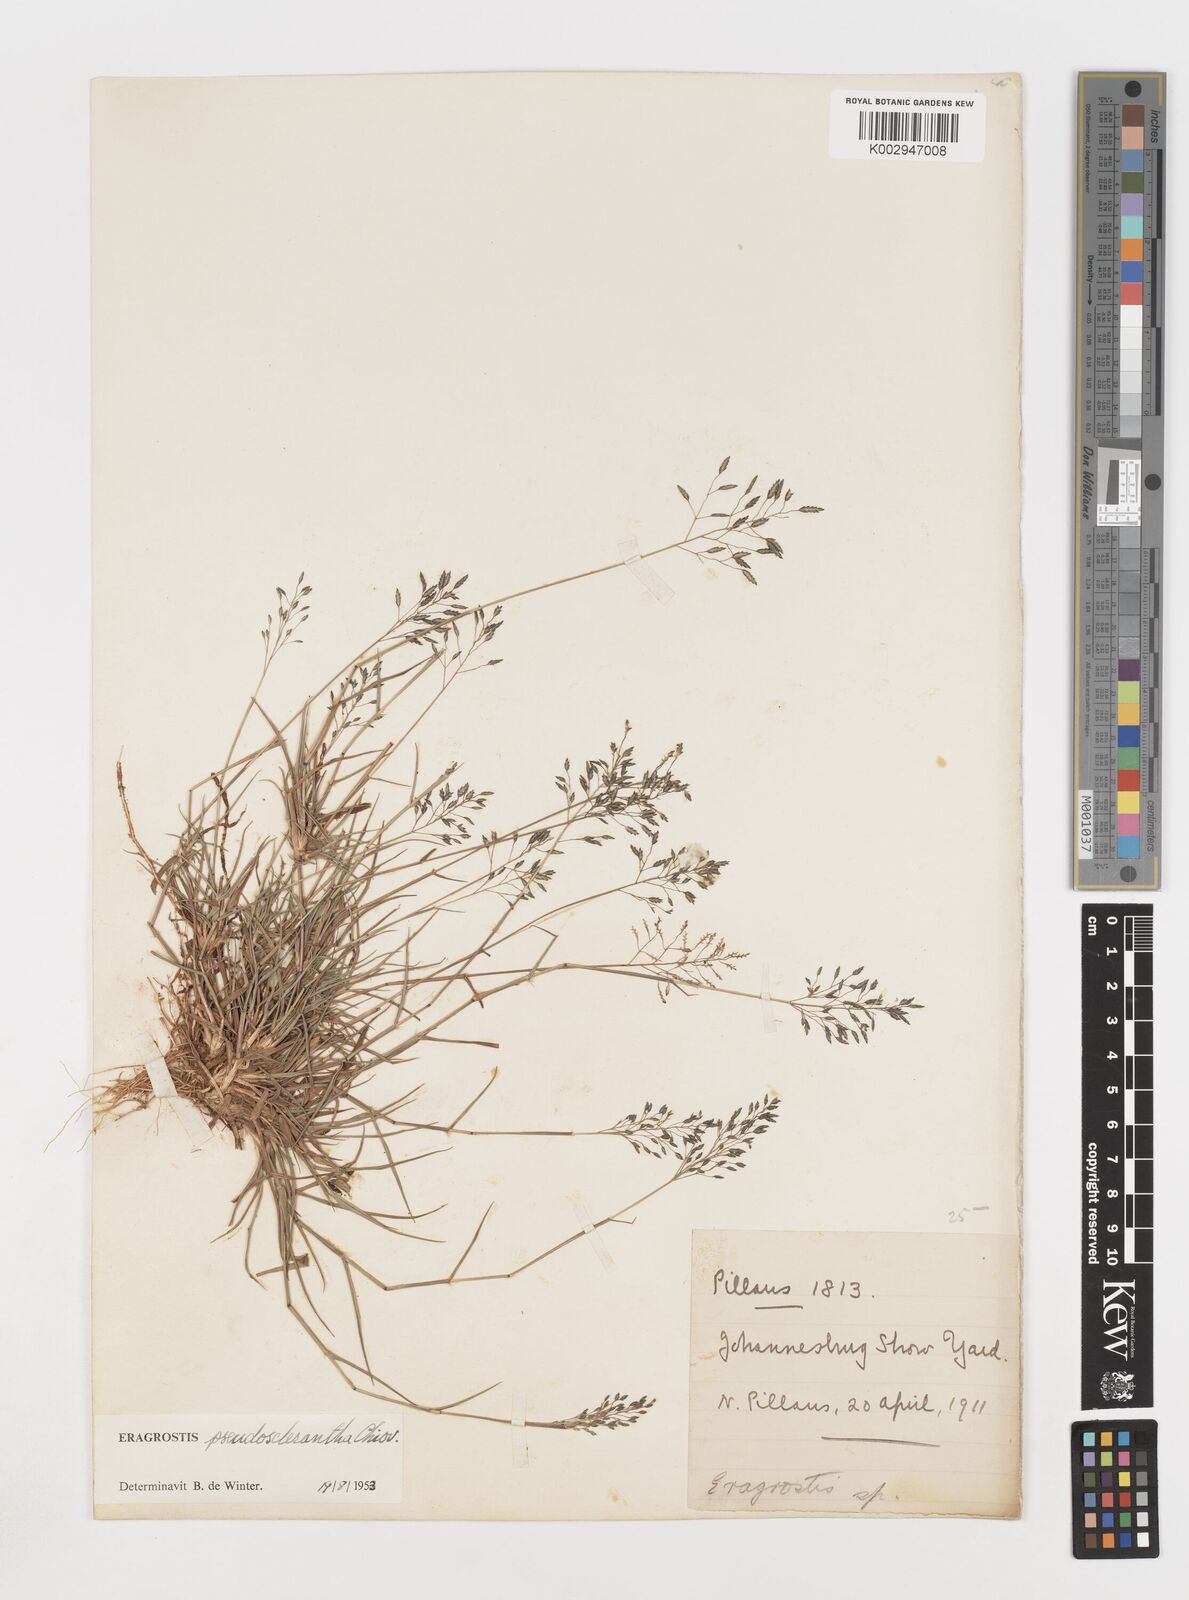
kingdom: Plantae
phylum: Tracheophyta
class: Liliopsida
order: Poales
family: Poaceae
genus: Eragrostis
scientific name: Eragrostis patentipilosa
